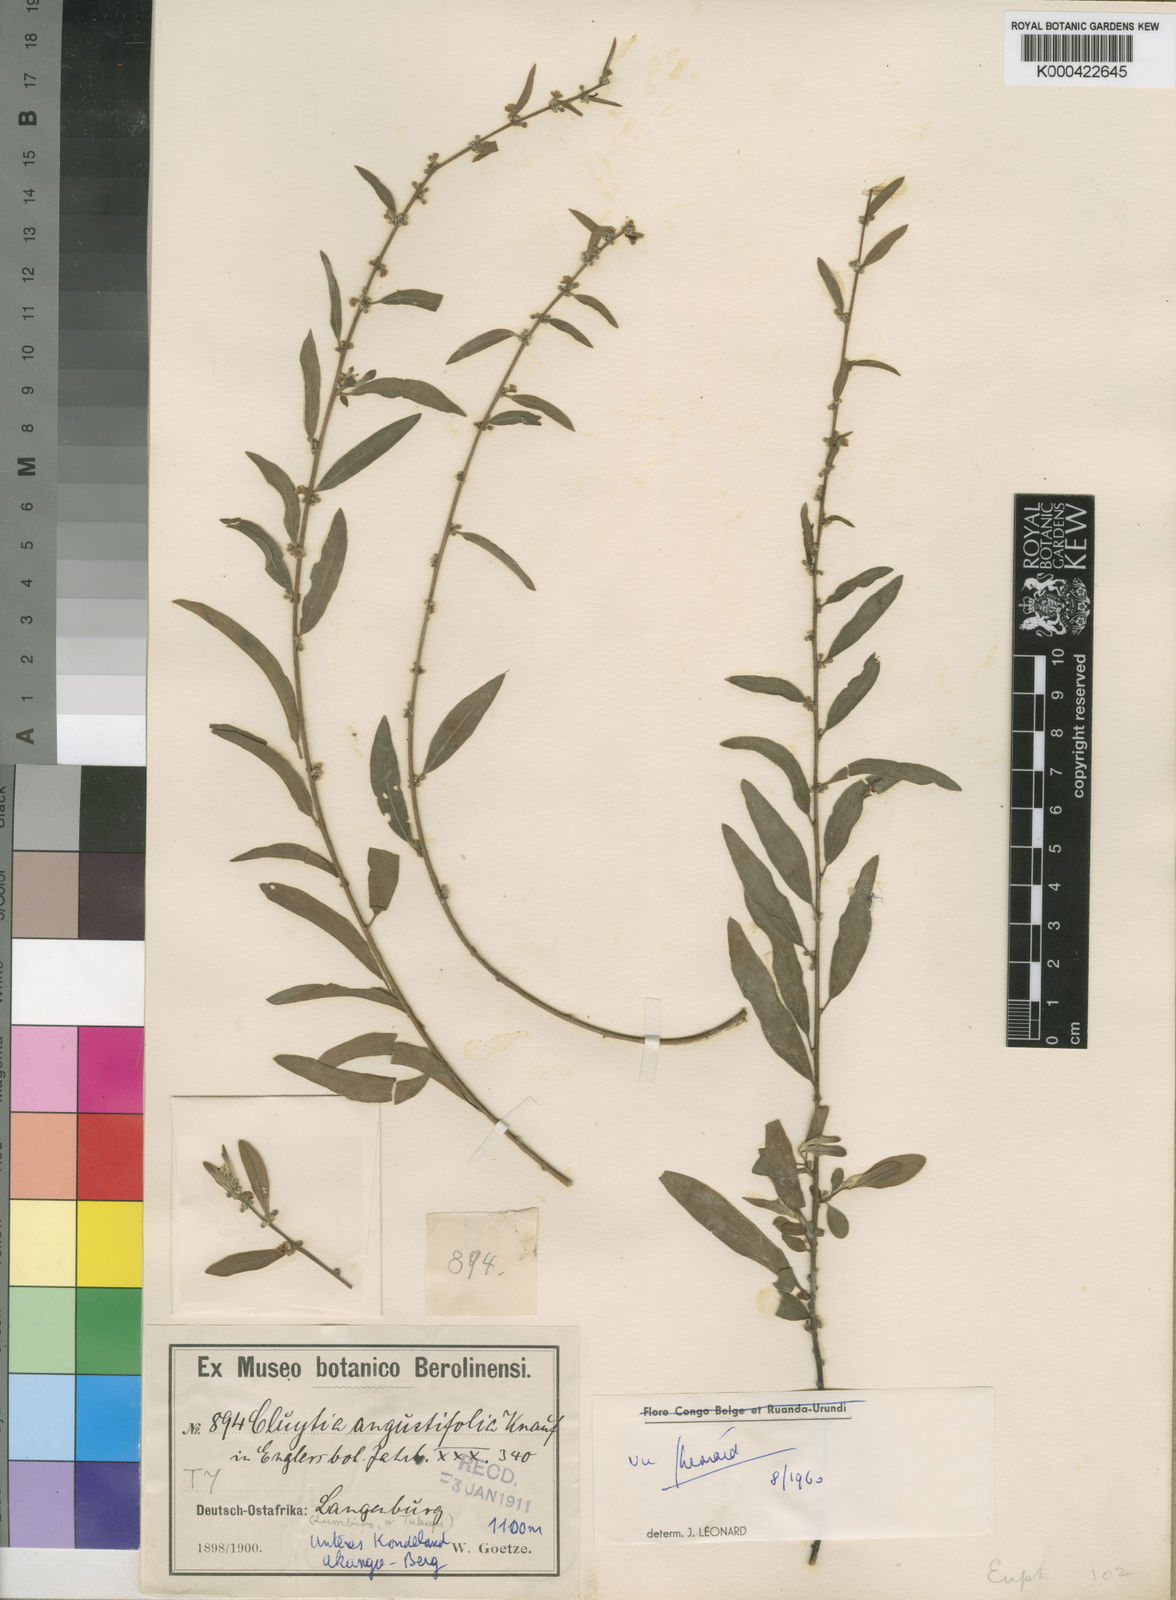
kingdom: Plantae
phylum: Tracheophyta
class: Magnoliopsida
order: Malpighiales
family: Peraceae
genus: Clutia
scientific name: Clutia angustifolia
